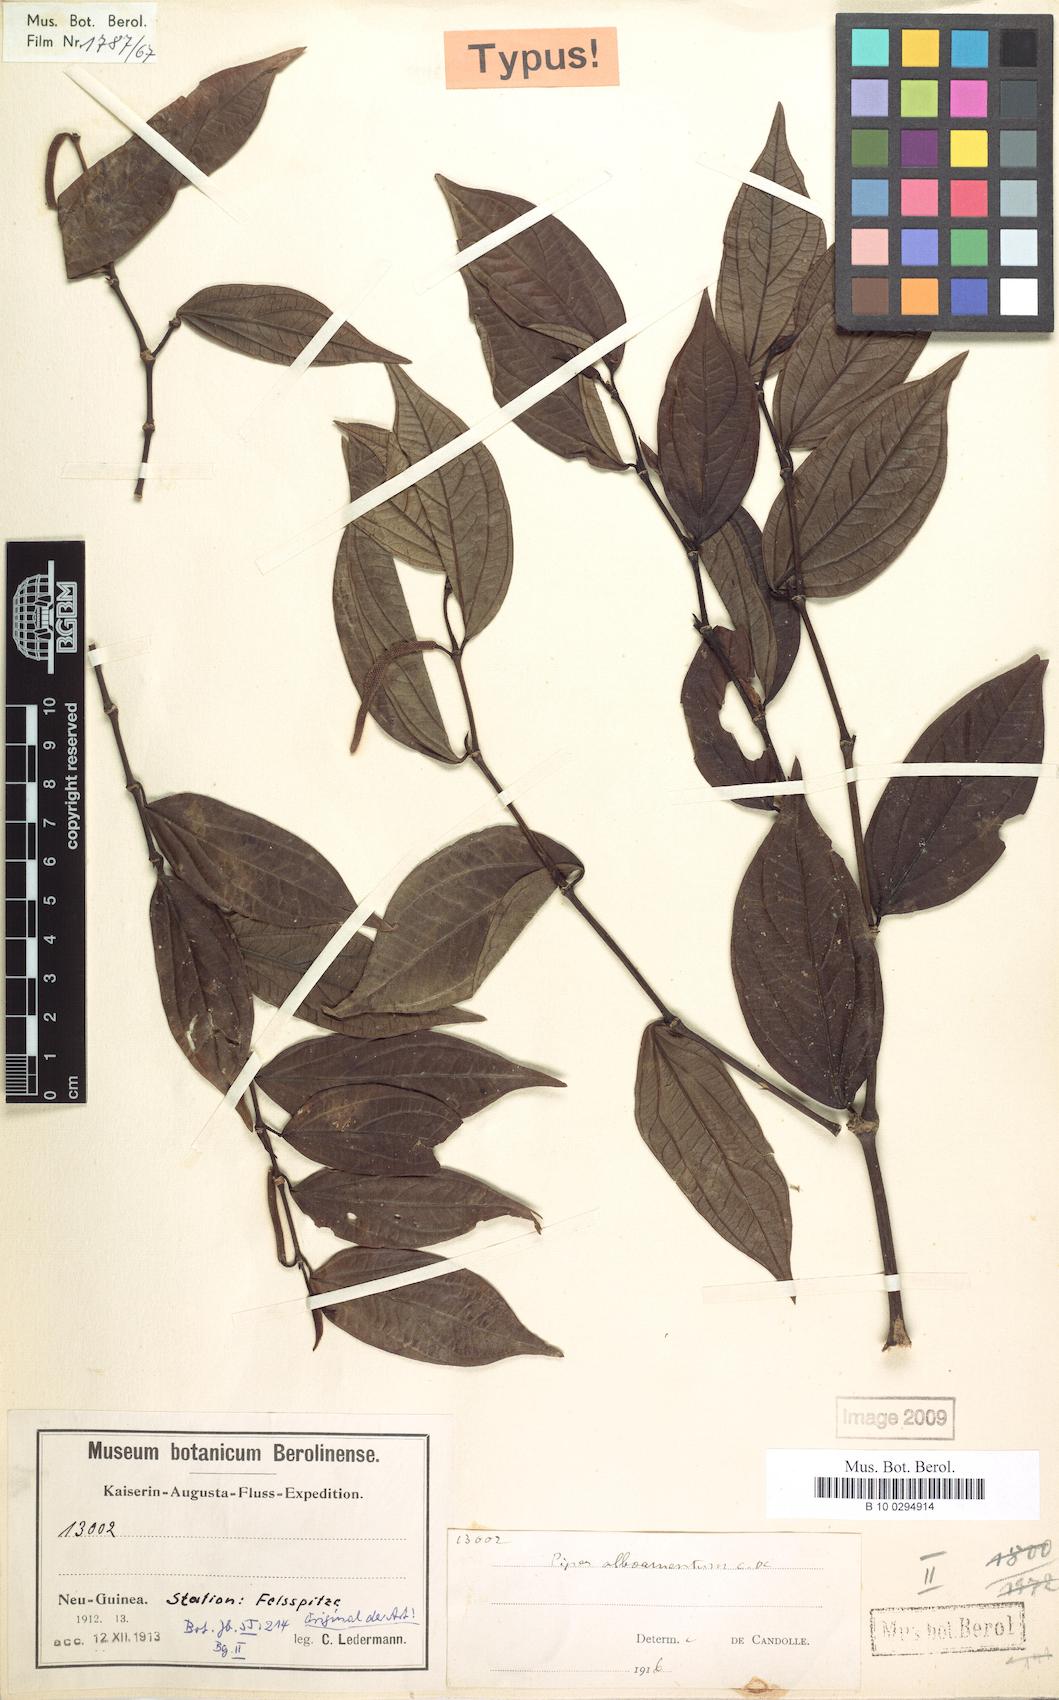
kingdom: Plantae
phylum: Tracheophyta
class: Magnoliopsida
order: Piperales
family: Piperaceae
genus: Piper
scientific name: Piper albamentum
